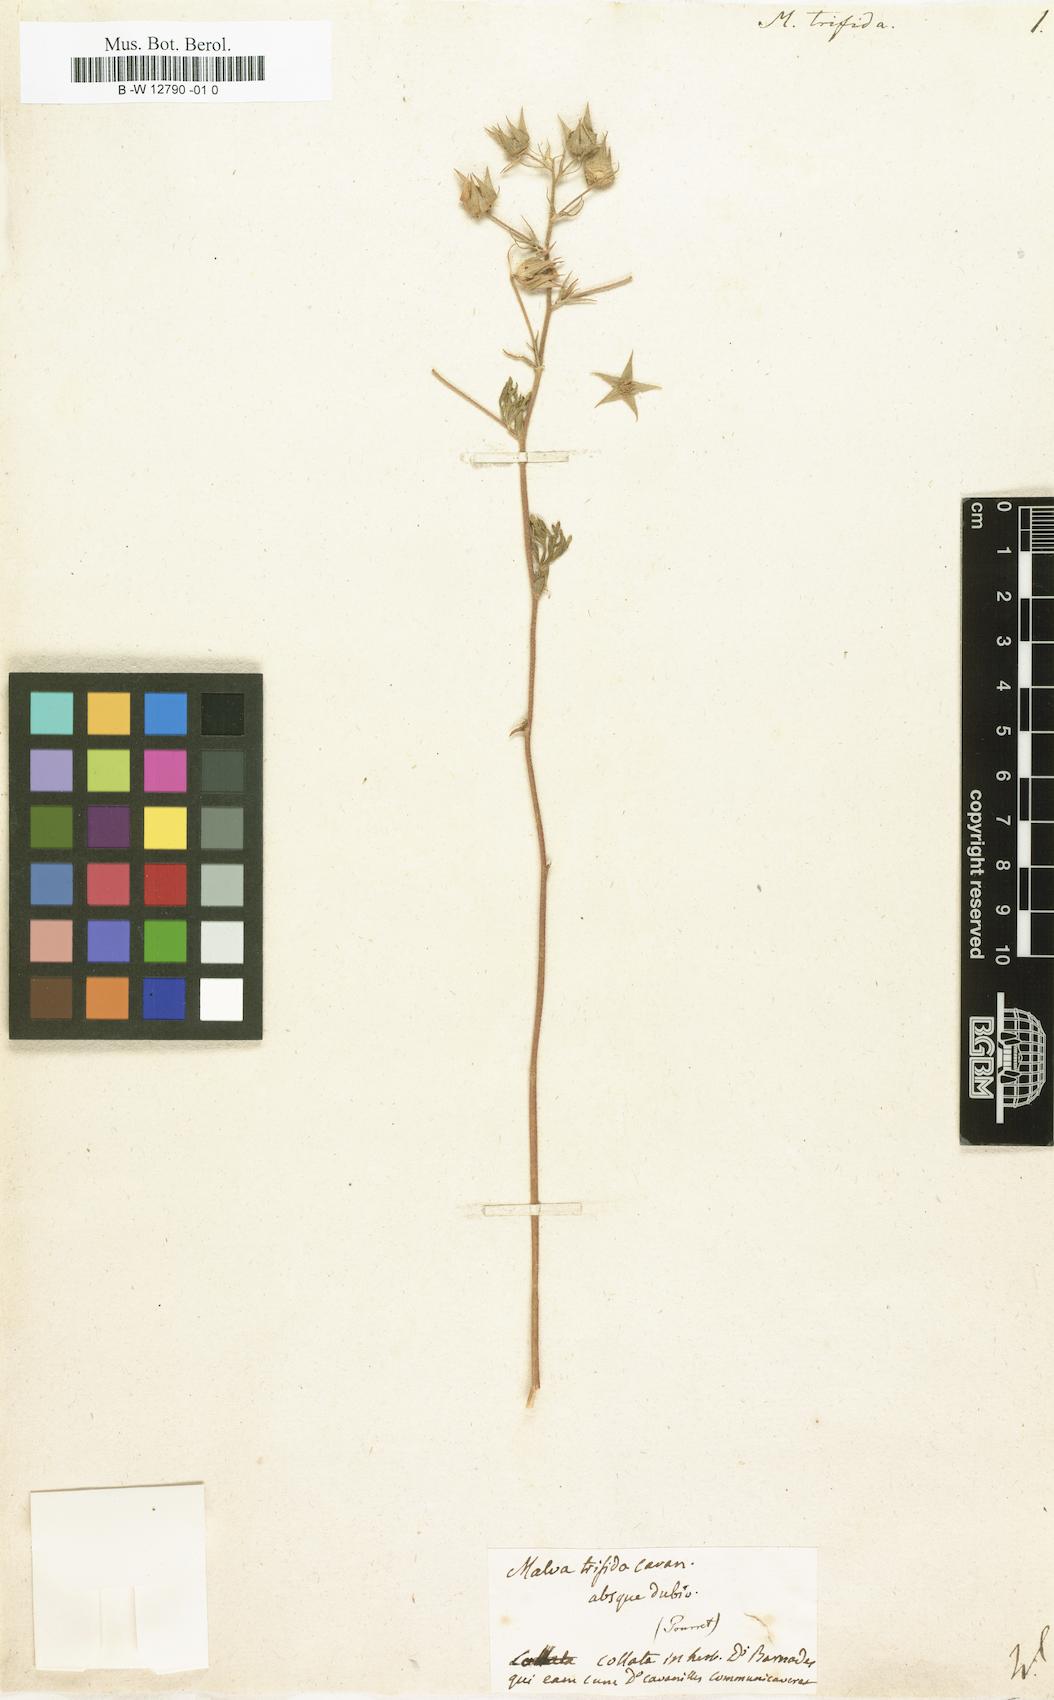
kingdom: Plantae
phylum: Tracheophyta
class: Magnoliopsida
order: Malvales
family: Malvaceae
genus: Malva
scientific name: Malva trifida
